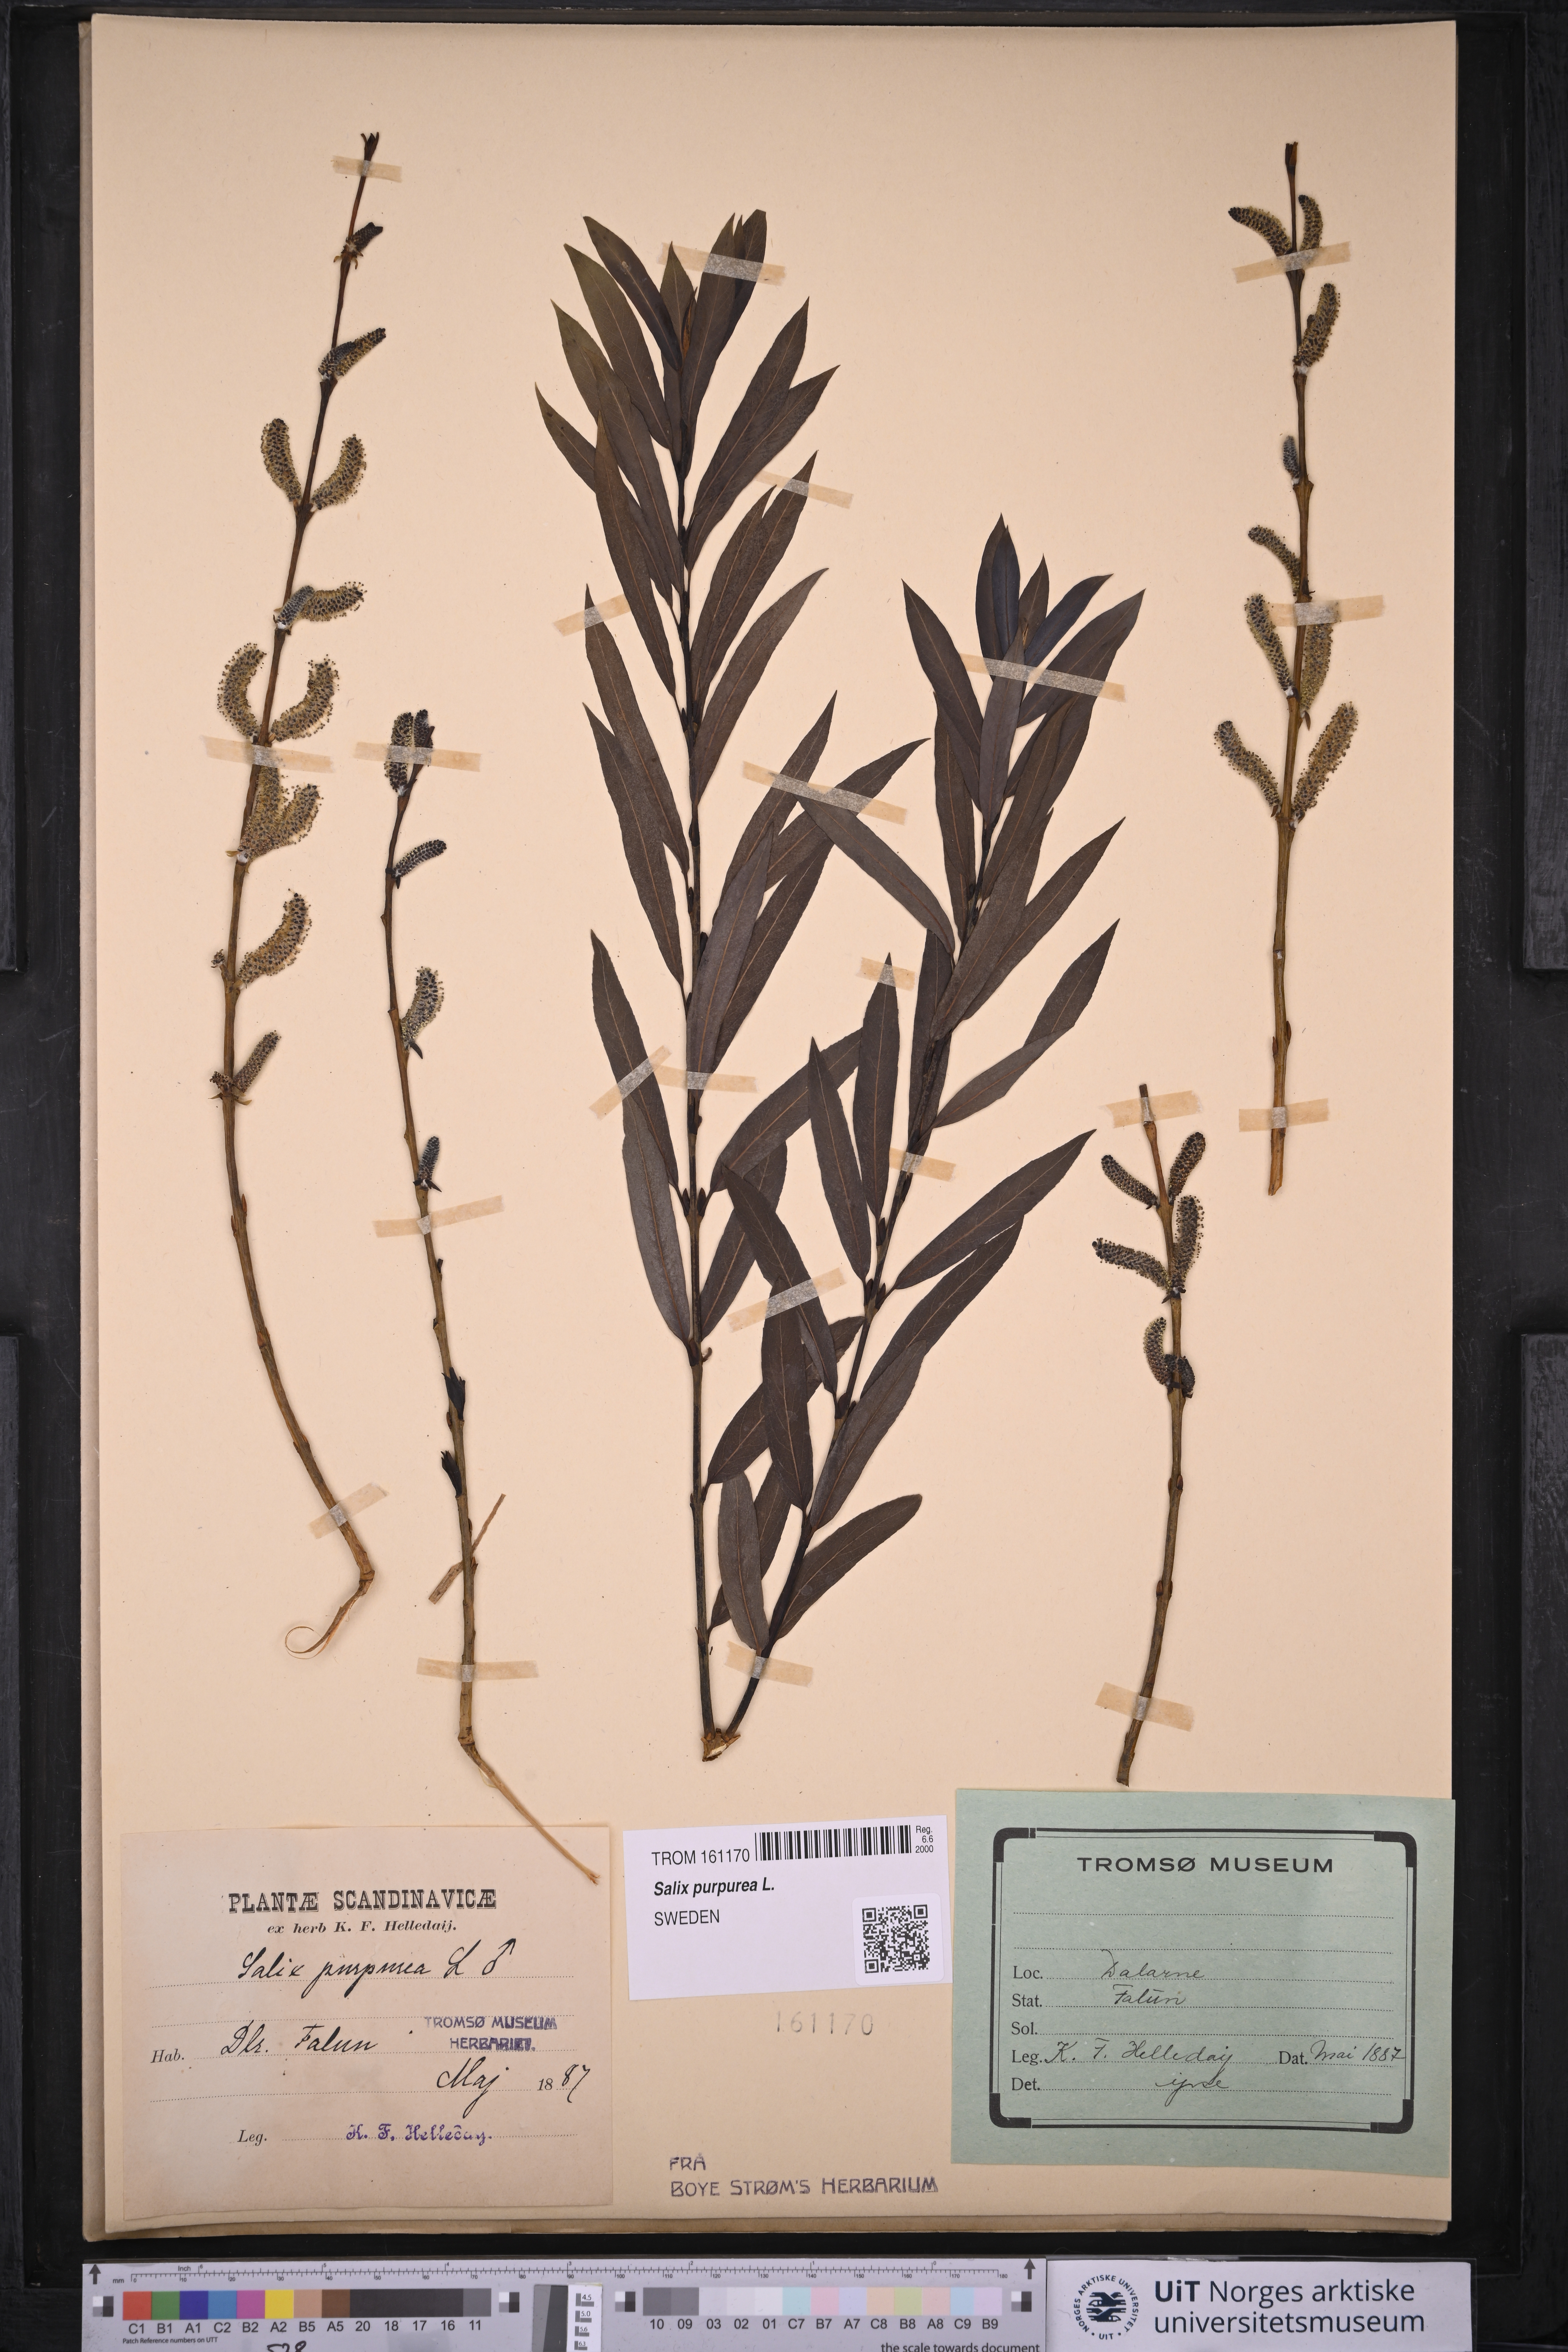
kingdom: Plantae
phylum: Tracheophyta
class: Magnoliopsida
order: Malpighiales
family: Salicaceae
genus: Salix
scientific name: Salix purpurea
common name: Purple willow
